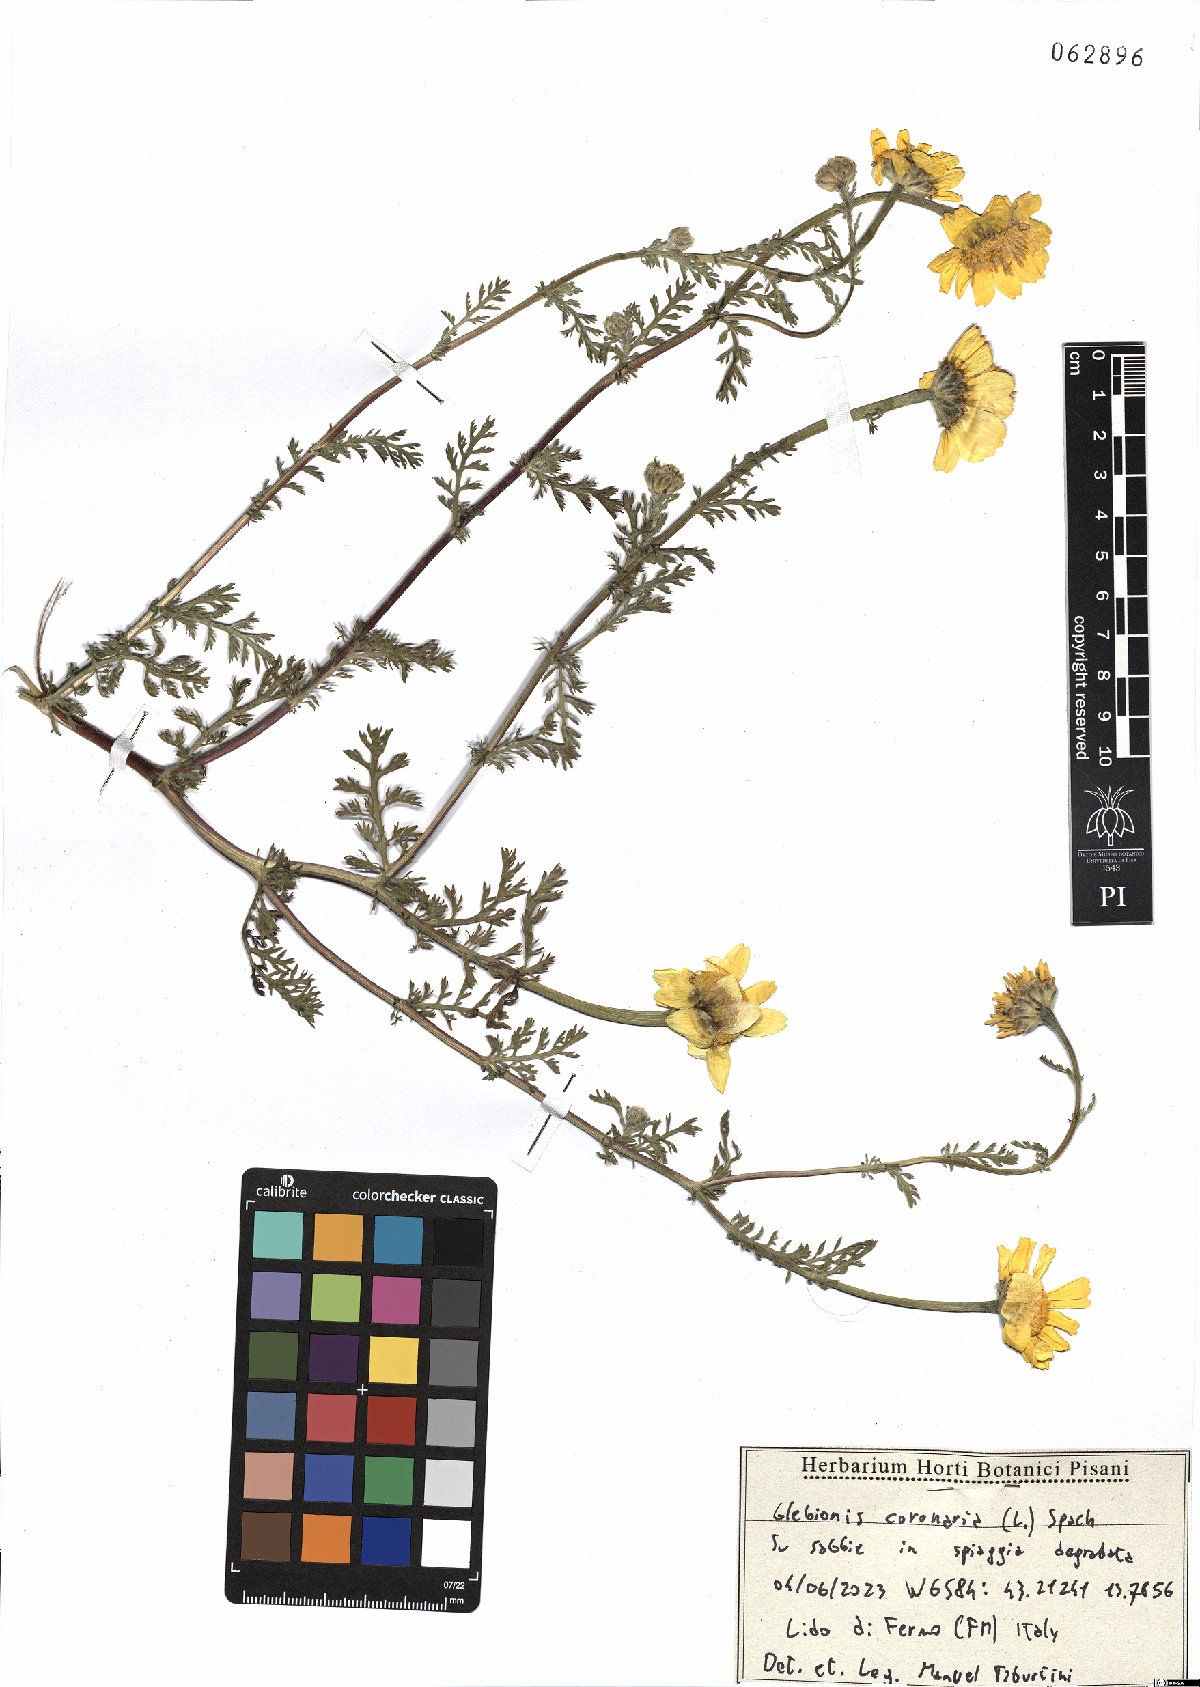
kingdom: Plantae
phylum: Tracheophyta
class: Magnoliopsida
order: Asterales
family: Asteraceae
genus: Glebionis
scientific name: Glebionis coronaria
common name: Crowndaisy
